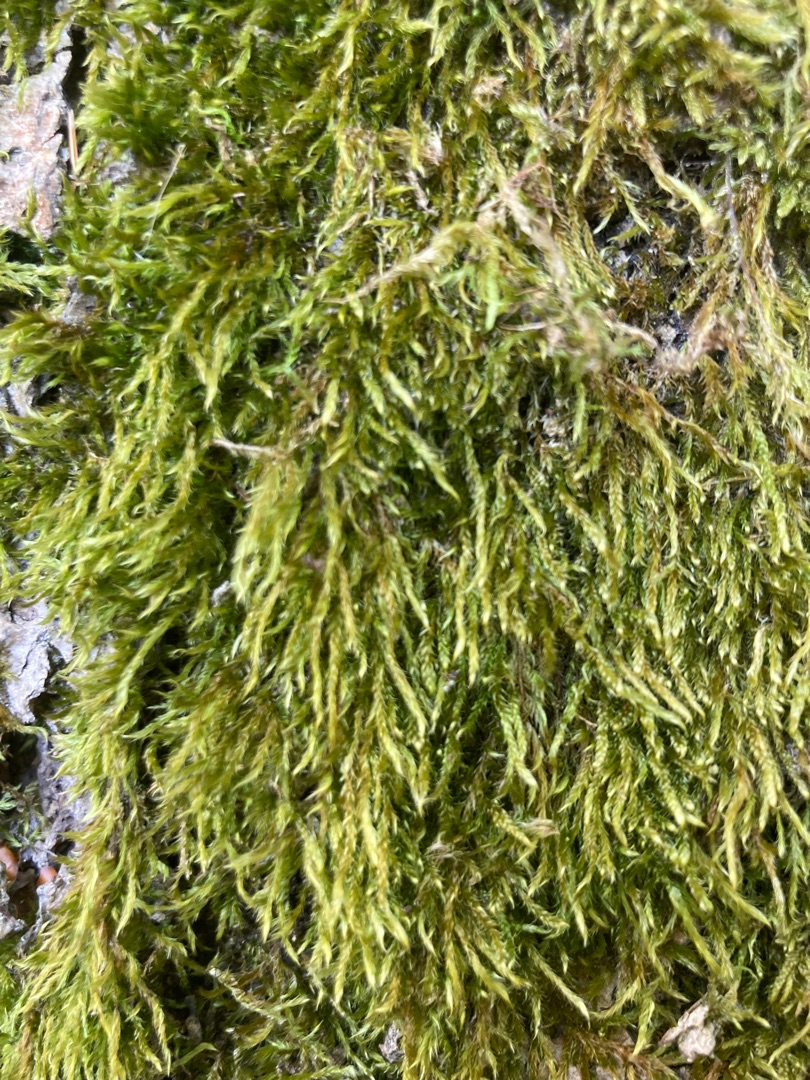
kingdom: Plantae
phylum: Bryophyta
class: Bryopsida
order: Hypnales
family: Hypnaceae
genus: Hypnum
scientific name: Hypnum cupressiforme
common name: Almindelig cypresmos
